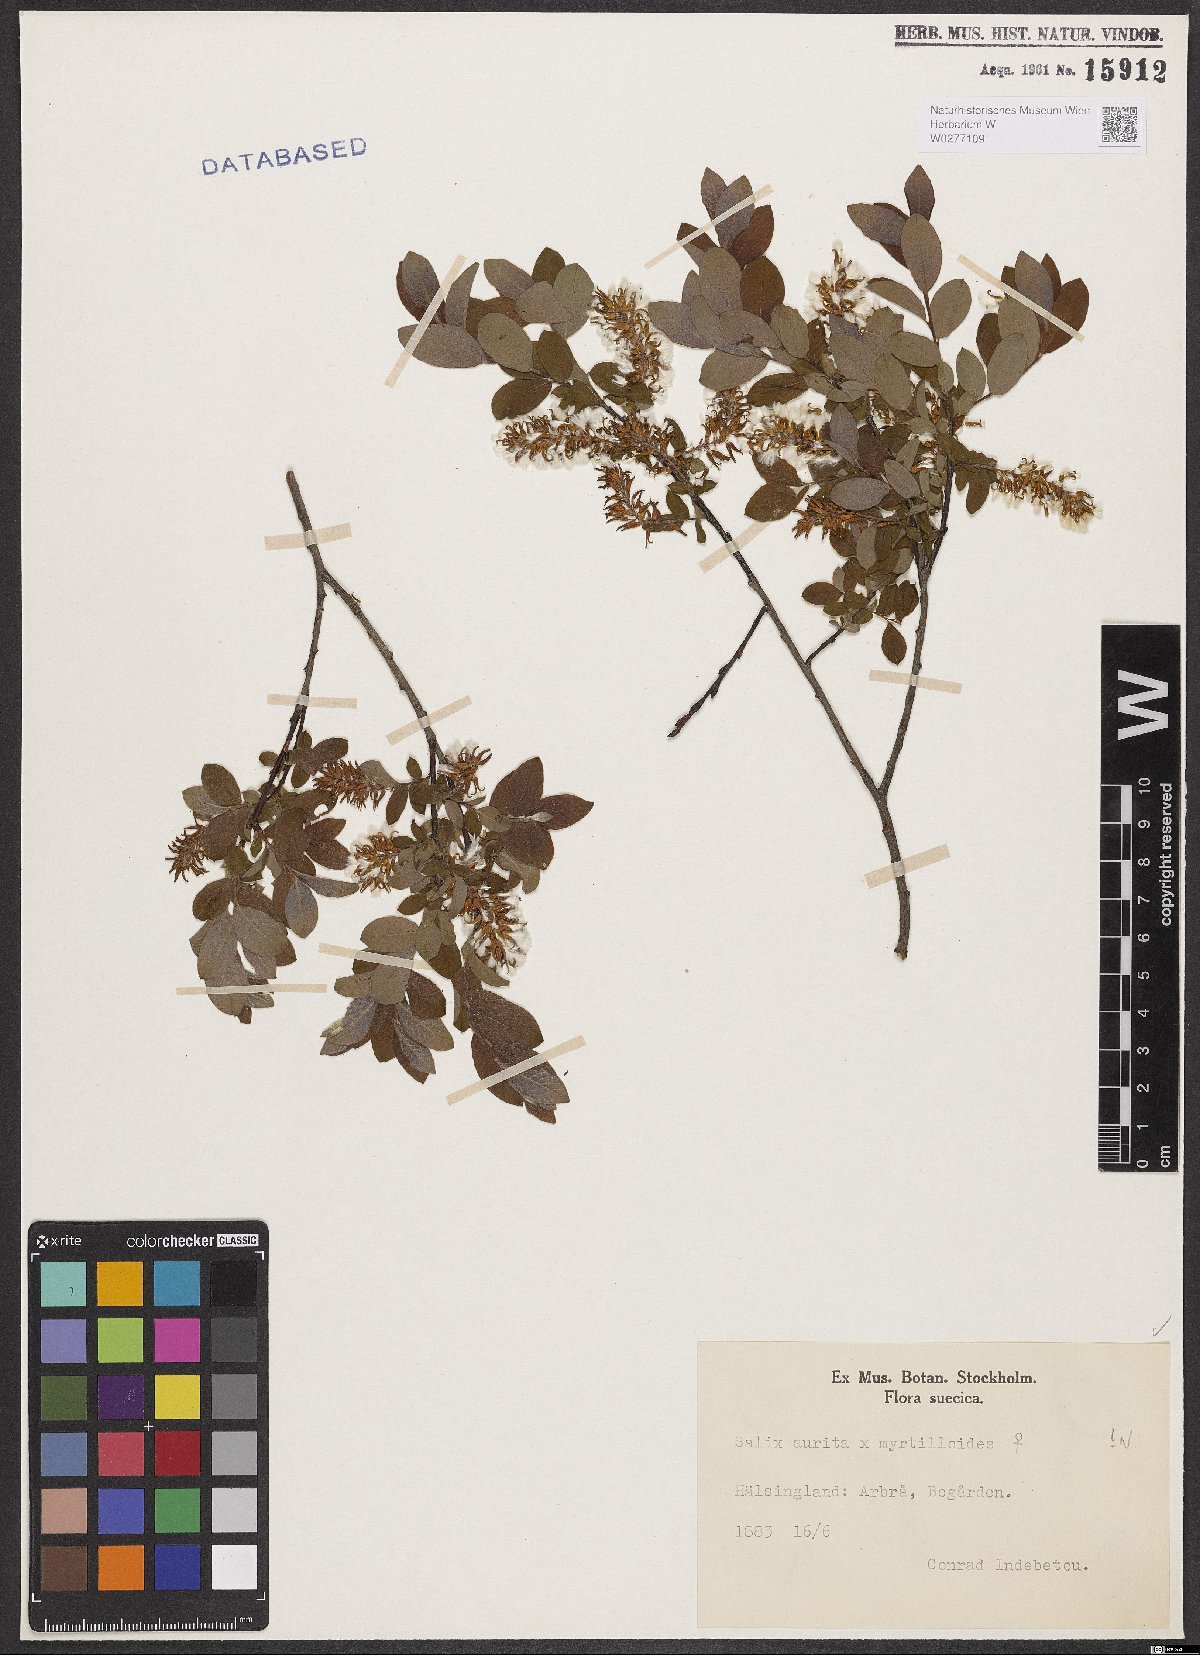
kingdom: Plantae
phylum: Tracheophyta
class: Magnoliopsida
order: Malpighiales
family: Salicaceae
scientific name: Salicaceae
